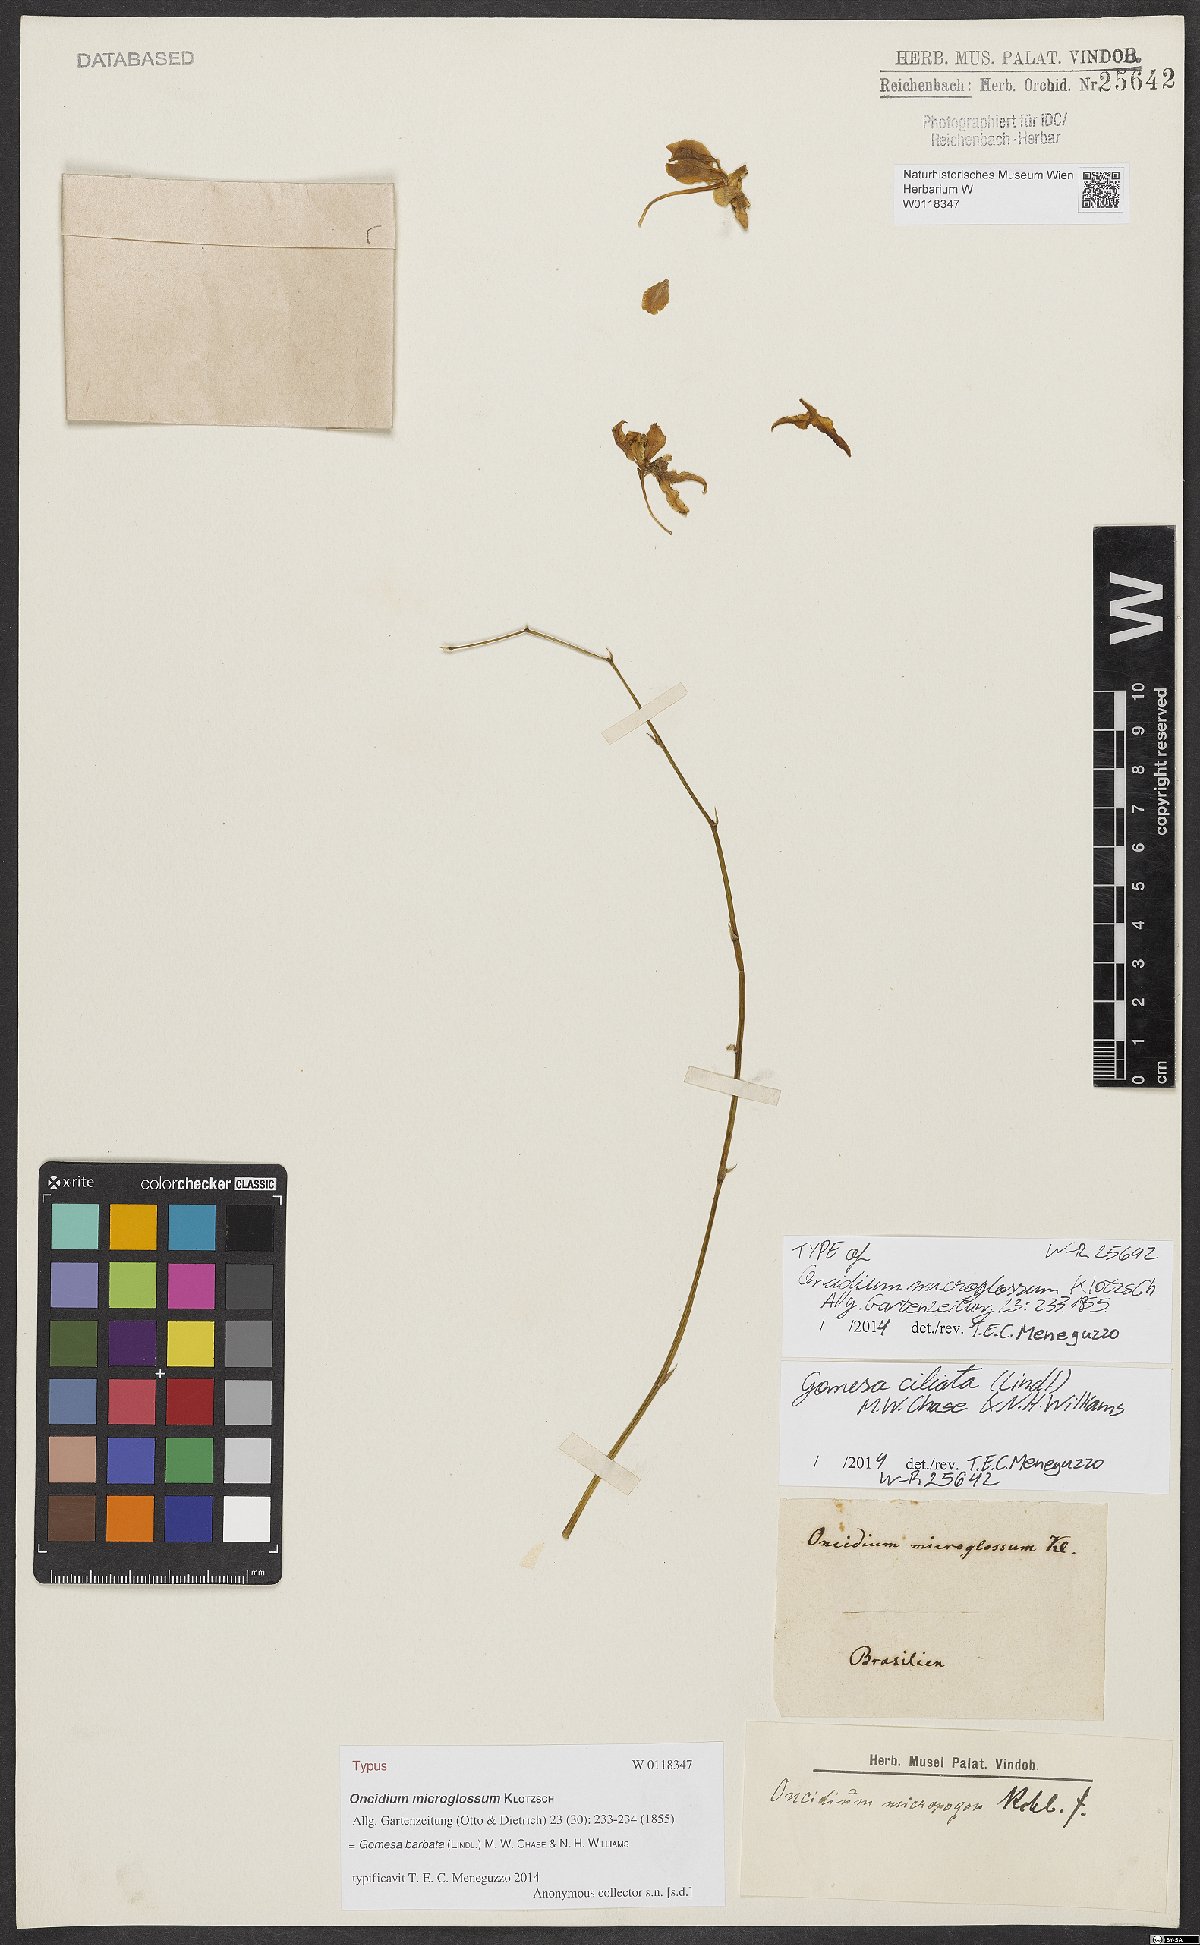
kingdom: Plantae
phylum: Tracheophyta
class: Liliopsida
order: Asparagales
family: Orchidaceae
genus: Gomesa
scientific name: Gomesa barbata
